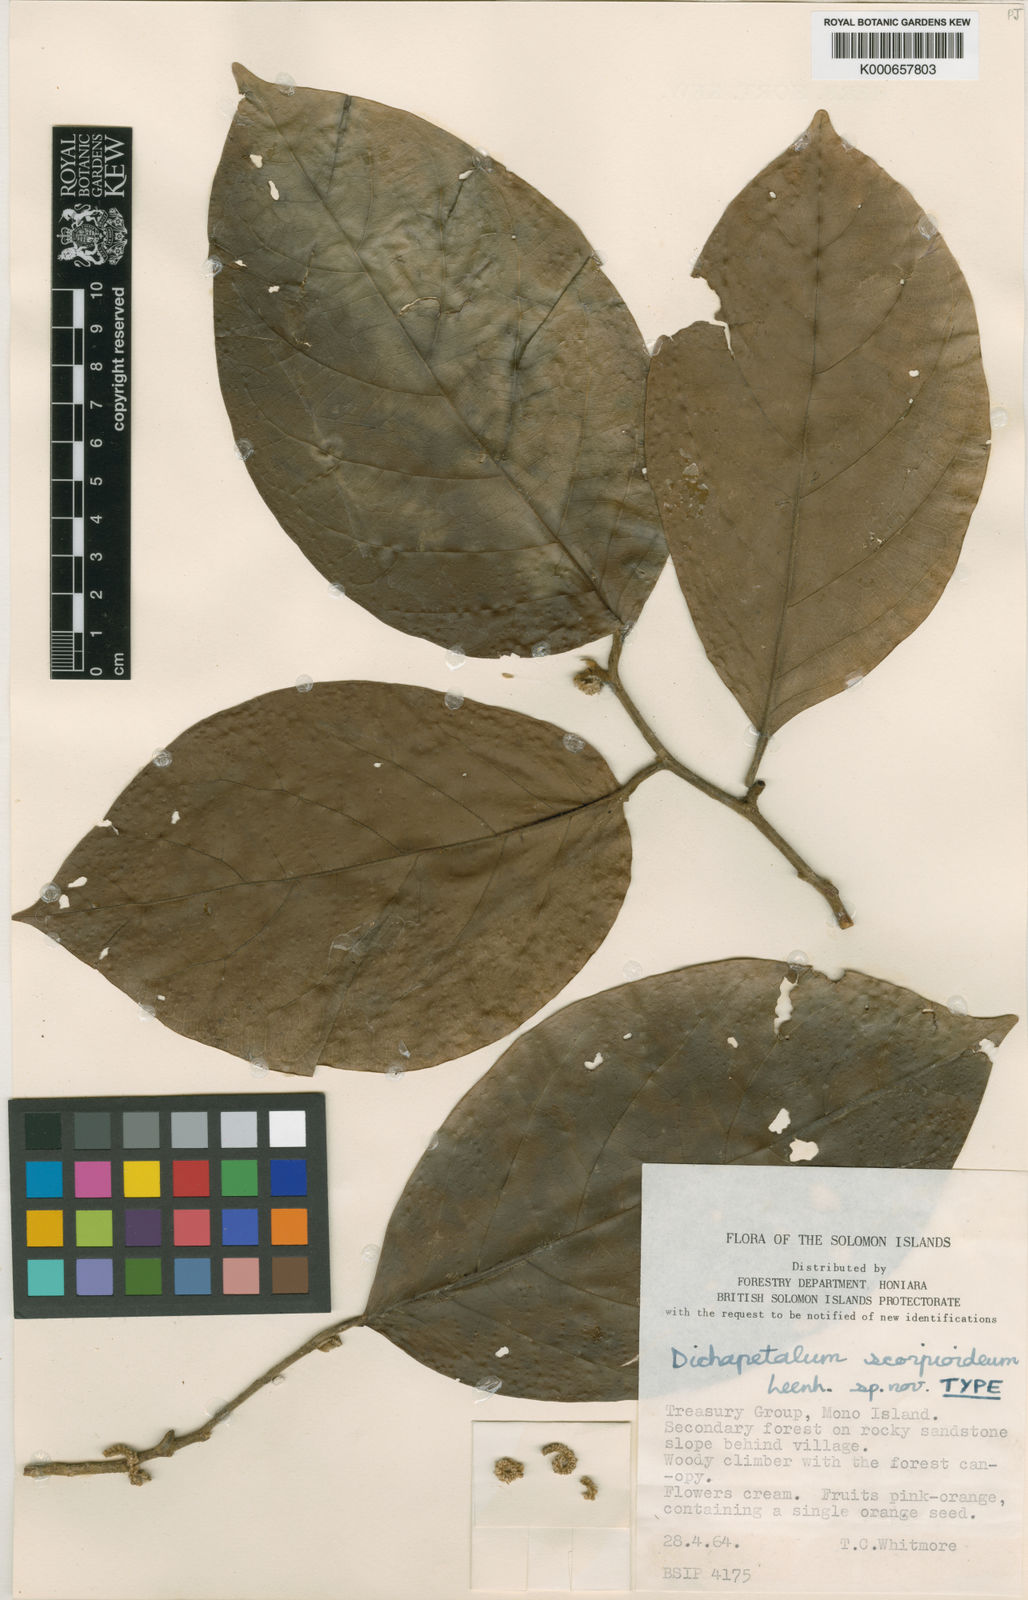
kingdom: Plantae
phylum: Tracheophyta
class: Magnoliopsida
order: Malpighiales
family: Dichapetalaceae
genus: Dichapetalum
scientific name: Dichapetalum scorpioideum
